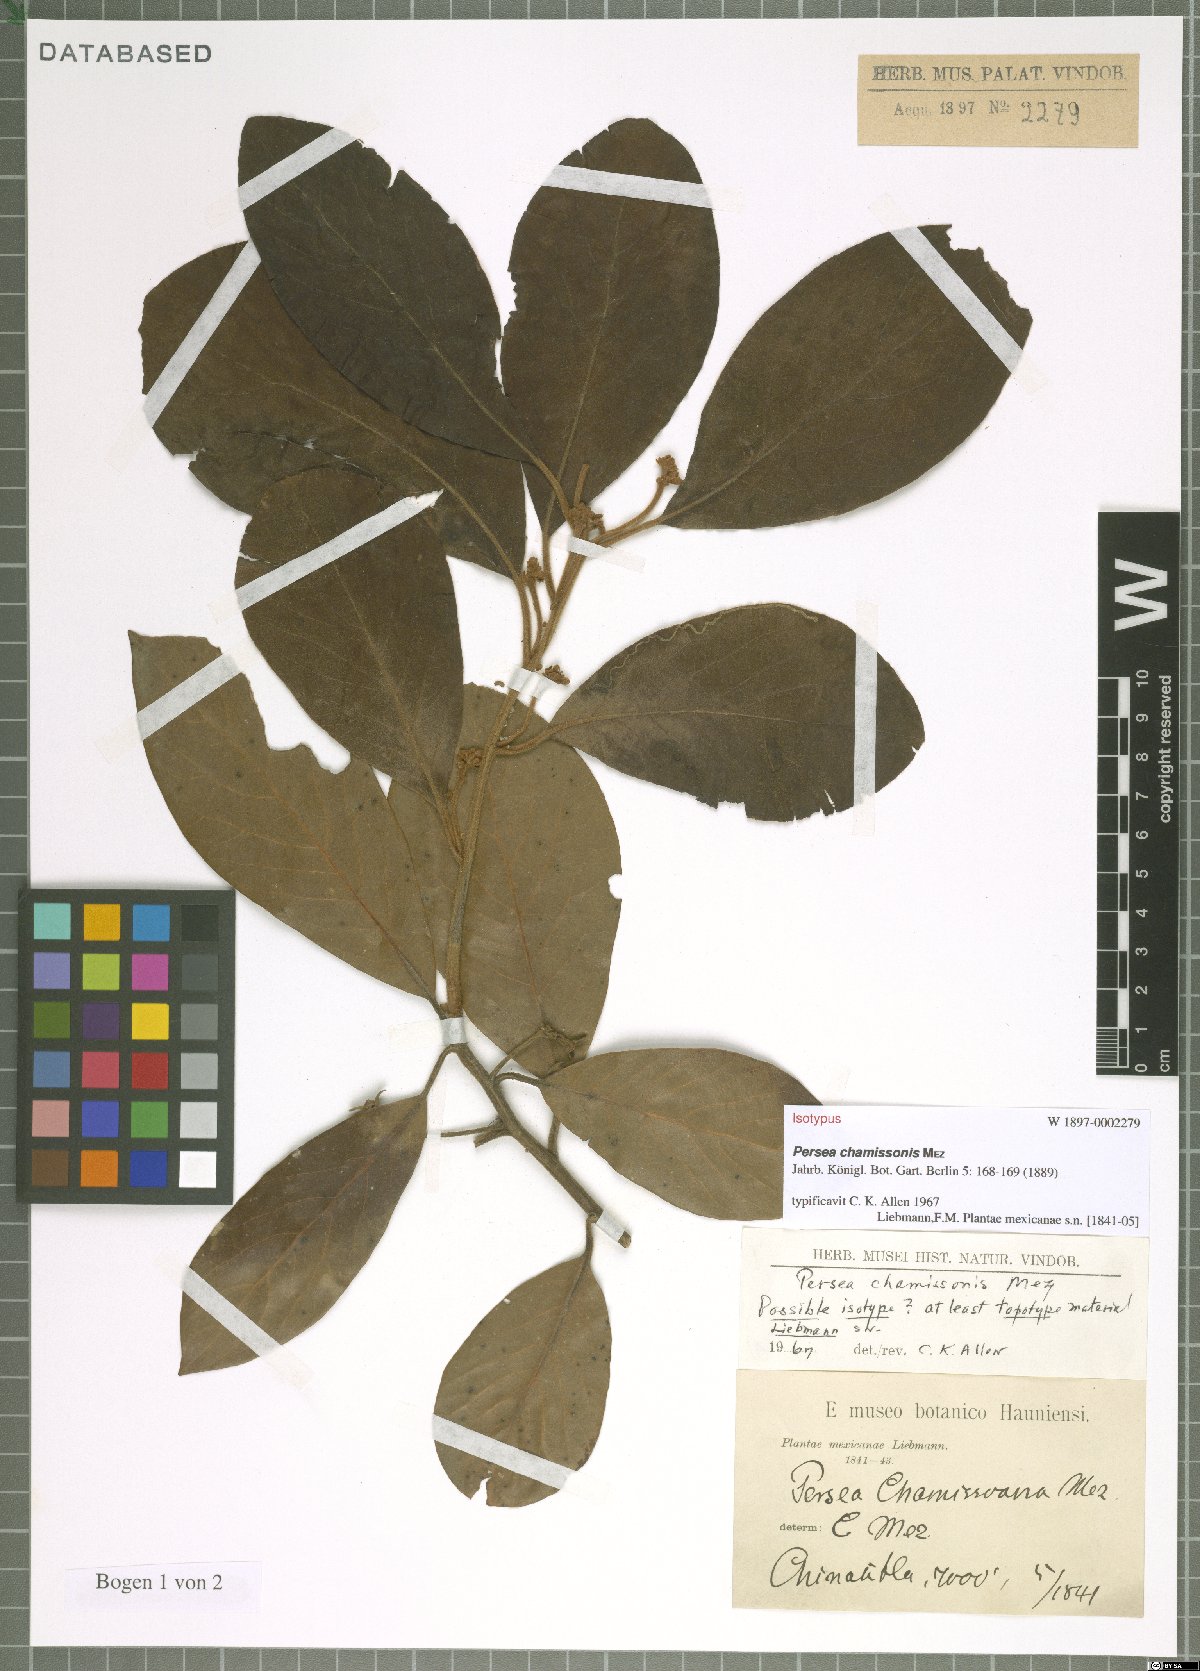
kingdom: Plantae
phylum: Tracheophyta
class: Magnoliopsida
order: Laurales
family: Lauraceae
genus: Persea
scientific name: Persea chamissonis
